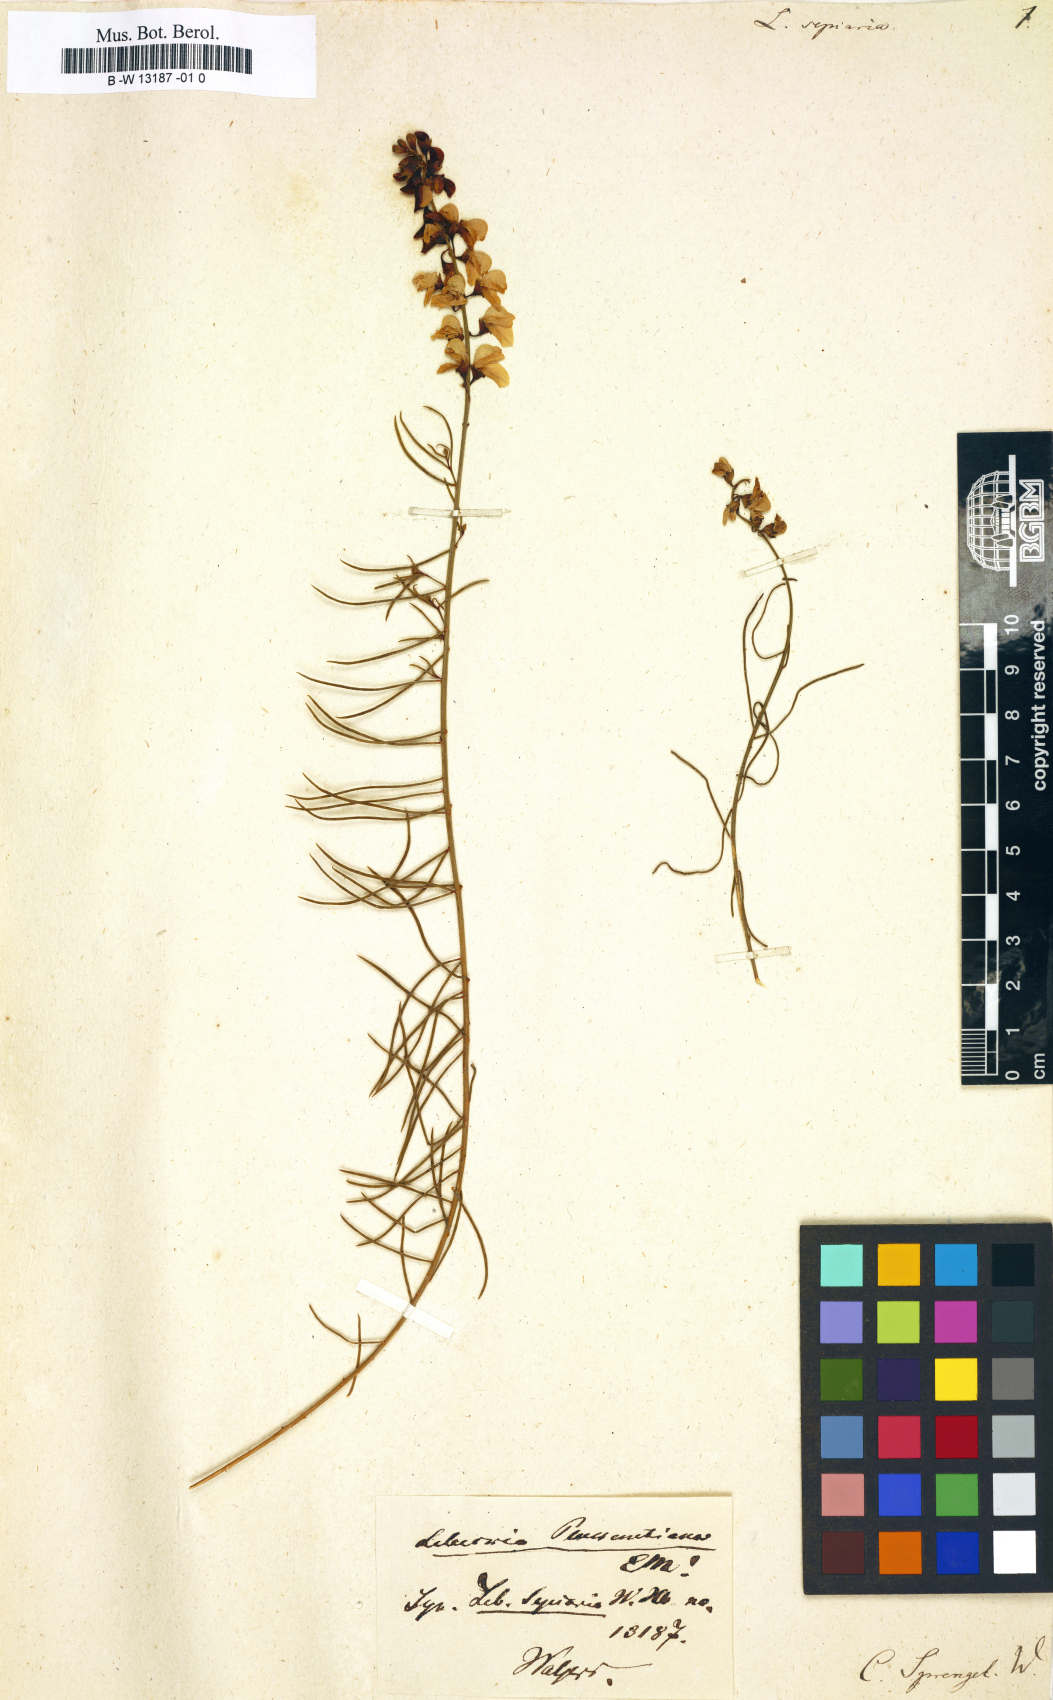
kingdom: Plantae
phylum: Tracheophyta
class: Magnoliopsida
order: Fabales
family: Fabaceae
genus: Lebeckia
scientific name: Lebeckia sepiaria
